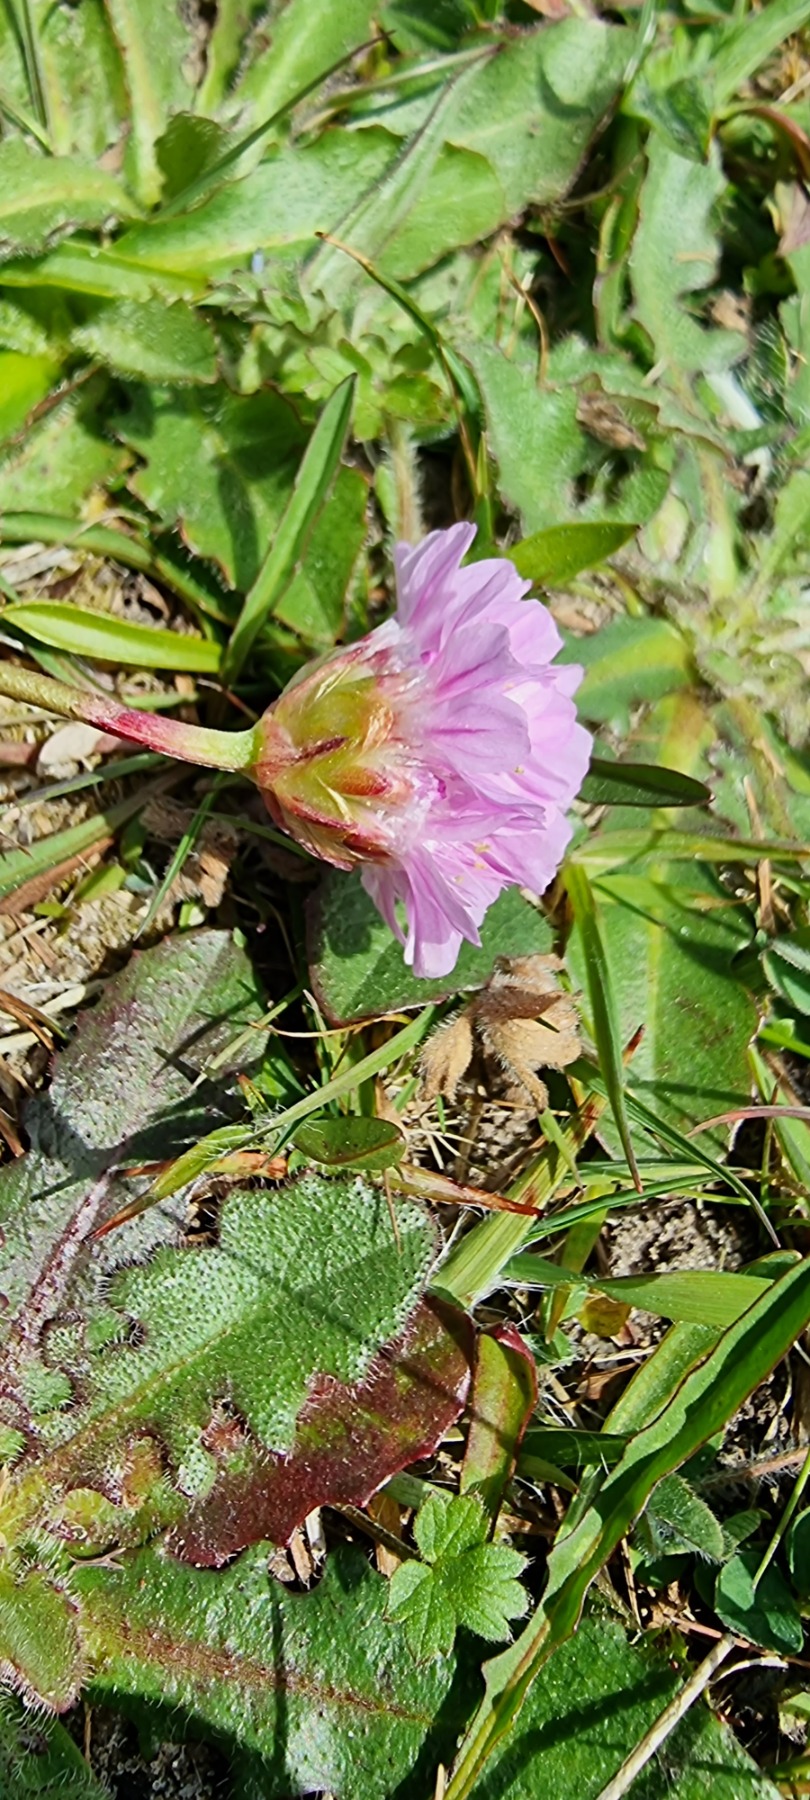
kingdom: Plantae
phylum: Tracheophyta
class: Magnoliopsida
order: Caryophyllales
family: Plumbaginaceae
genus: Armeria
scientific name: Armeria maritima
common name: Engelskgræs
